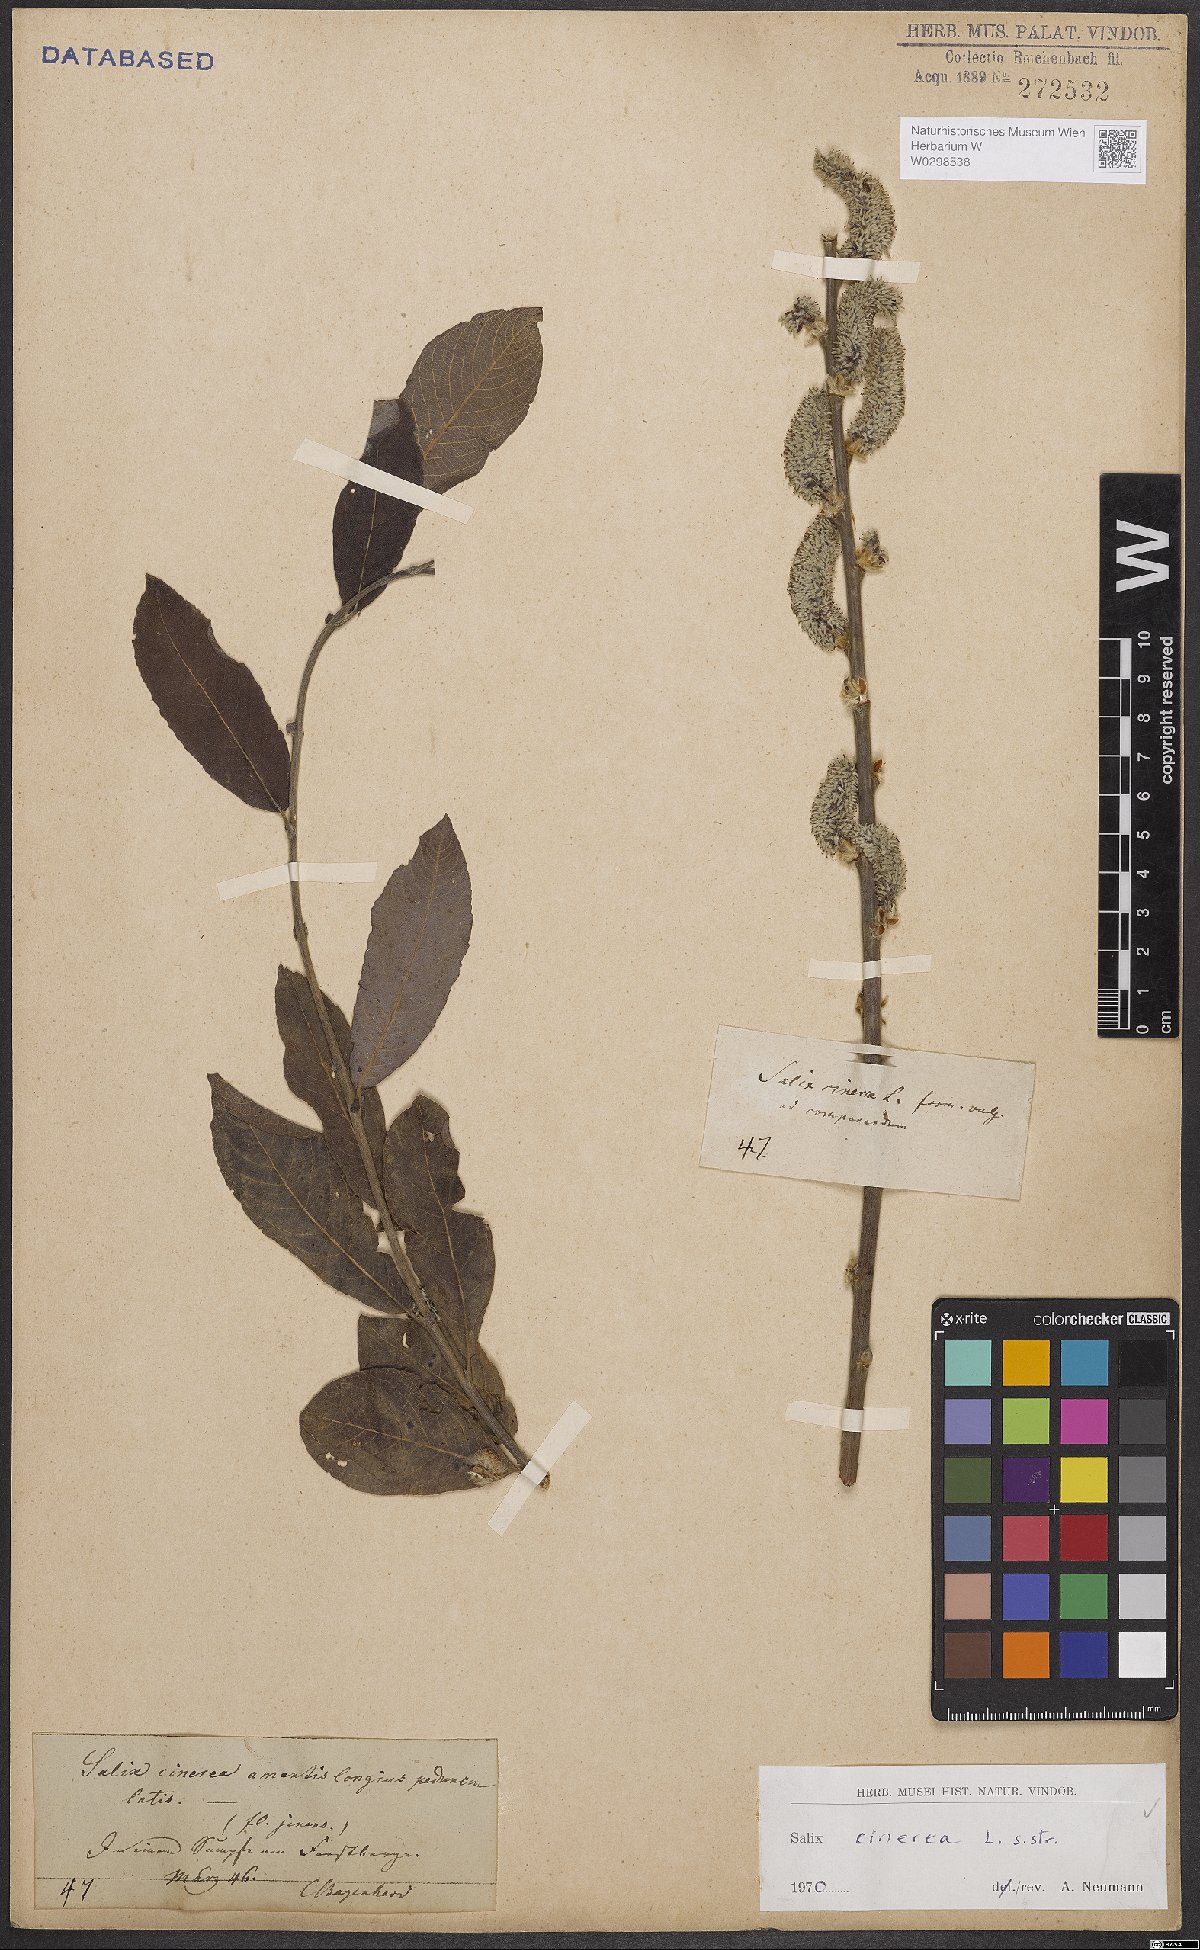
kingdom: Plantae
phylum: Tracheophyta
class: Magnoliopsida
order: Malpighiales
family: Salicaceae
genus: Salix
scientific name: Salix cinerea
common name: Common sallow
